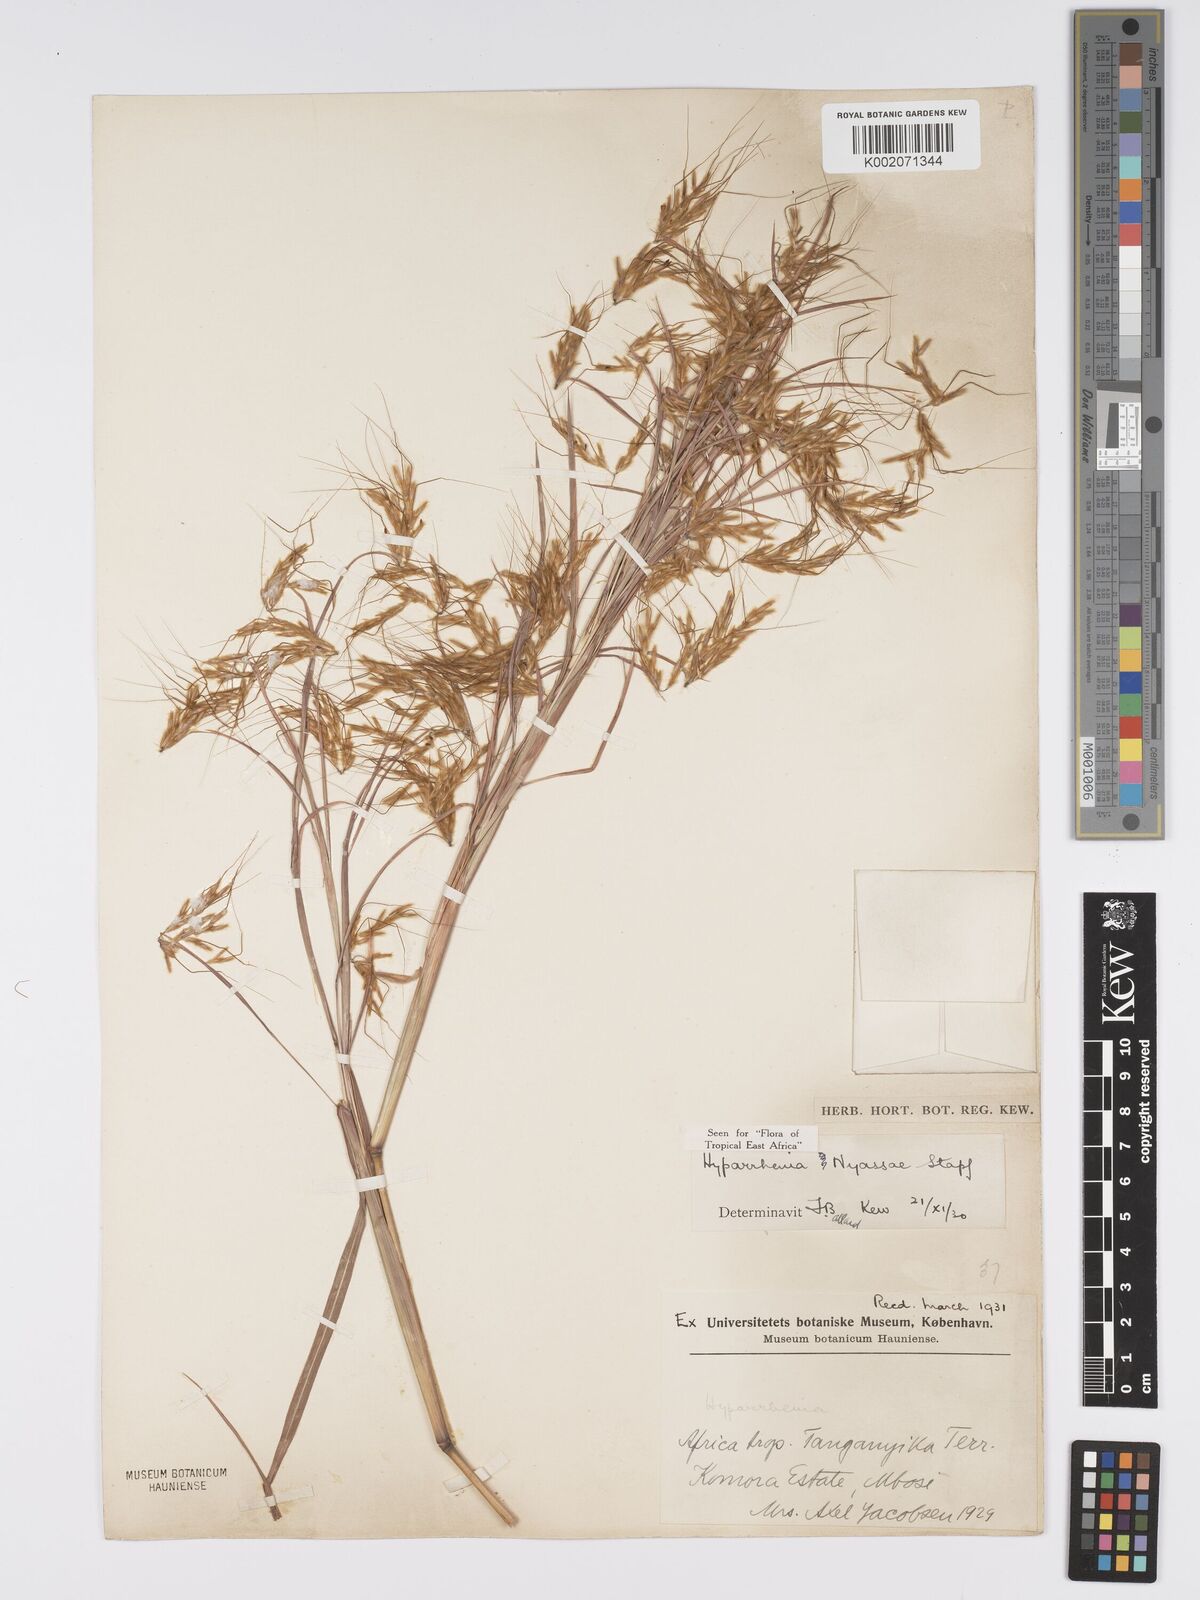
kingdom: Plantae
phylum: Tracheophyta
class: Liliopsida
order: Poales
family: Poaceae
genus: Hyparrhenia
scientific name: Hyparrhenia nyassae
